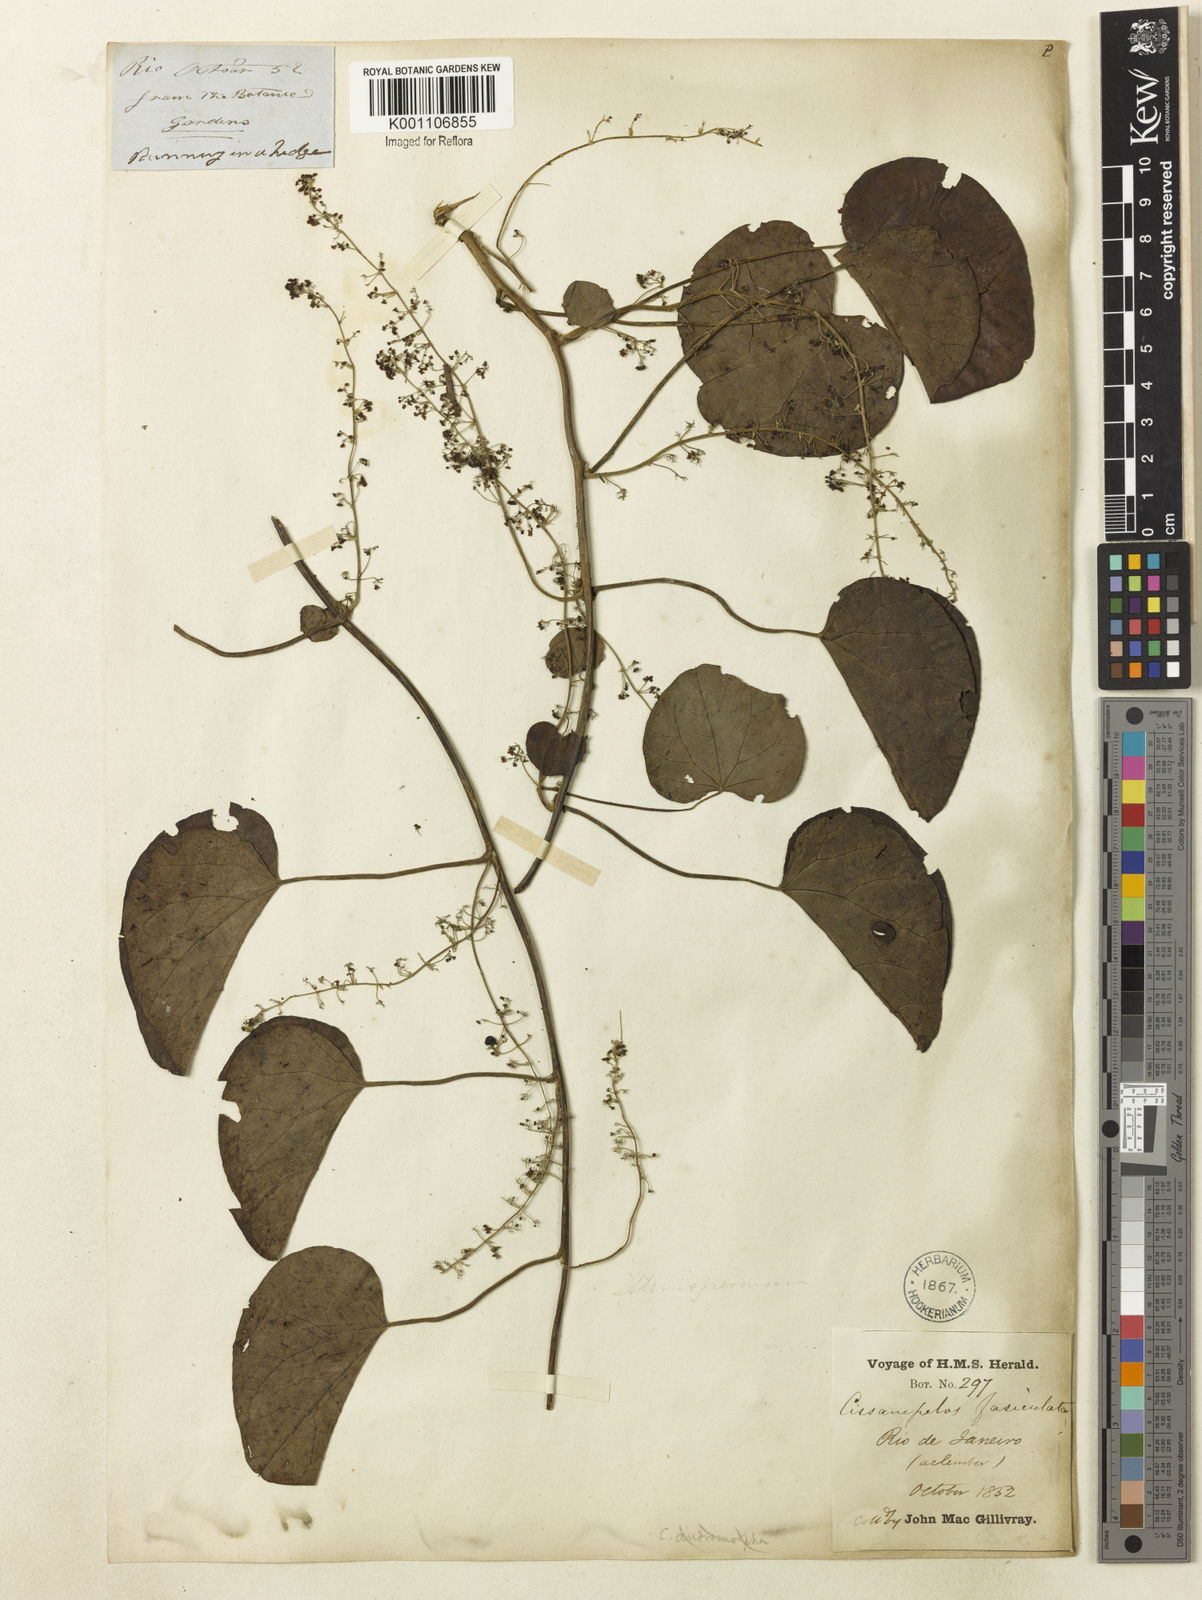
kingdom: Plantae
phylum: Tracheophyta
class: Magnoliopsida
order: Ranunculales
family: Menispermaceae
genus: Cissampelos
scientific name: Cissampelos andromorpha
